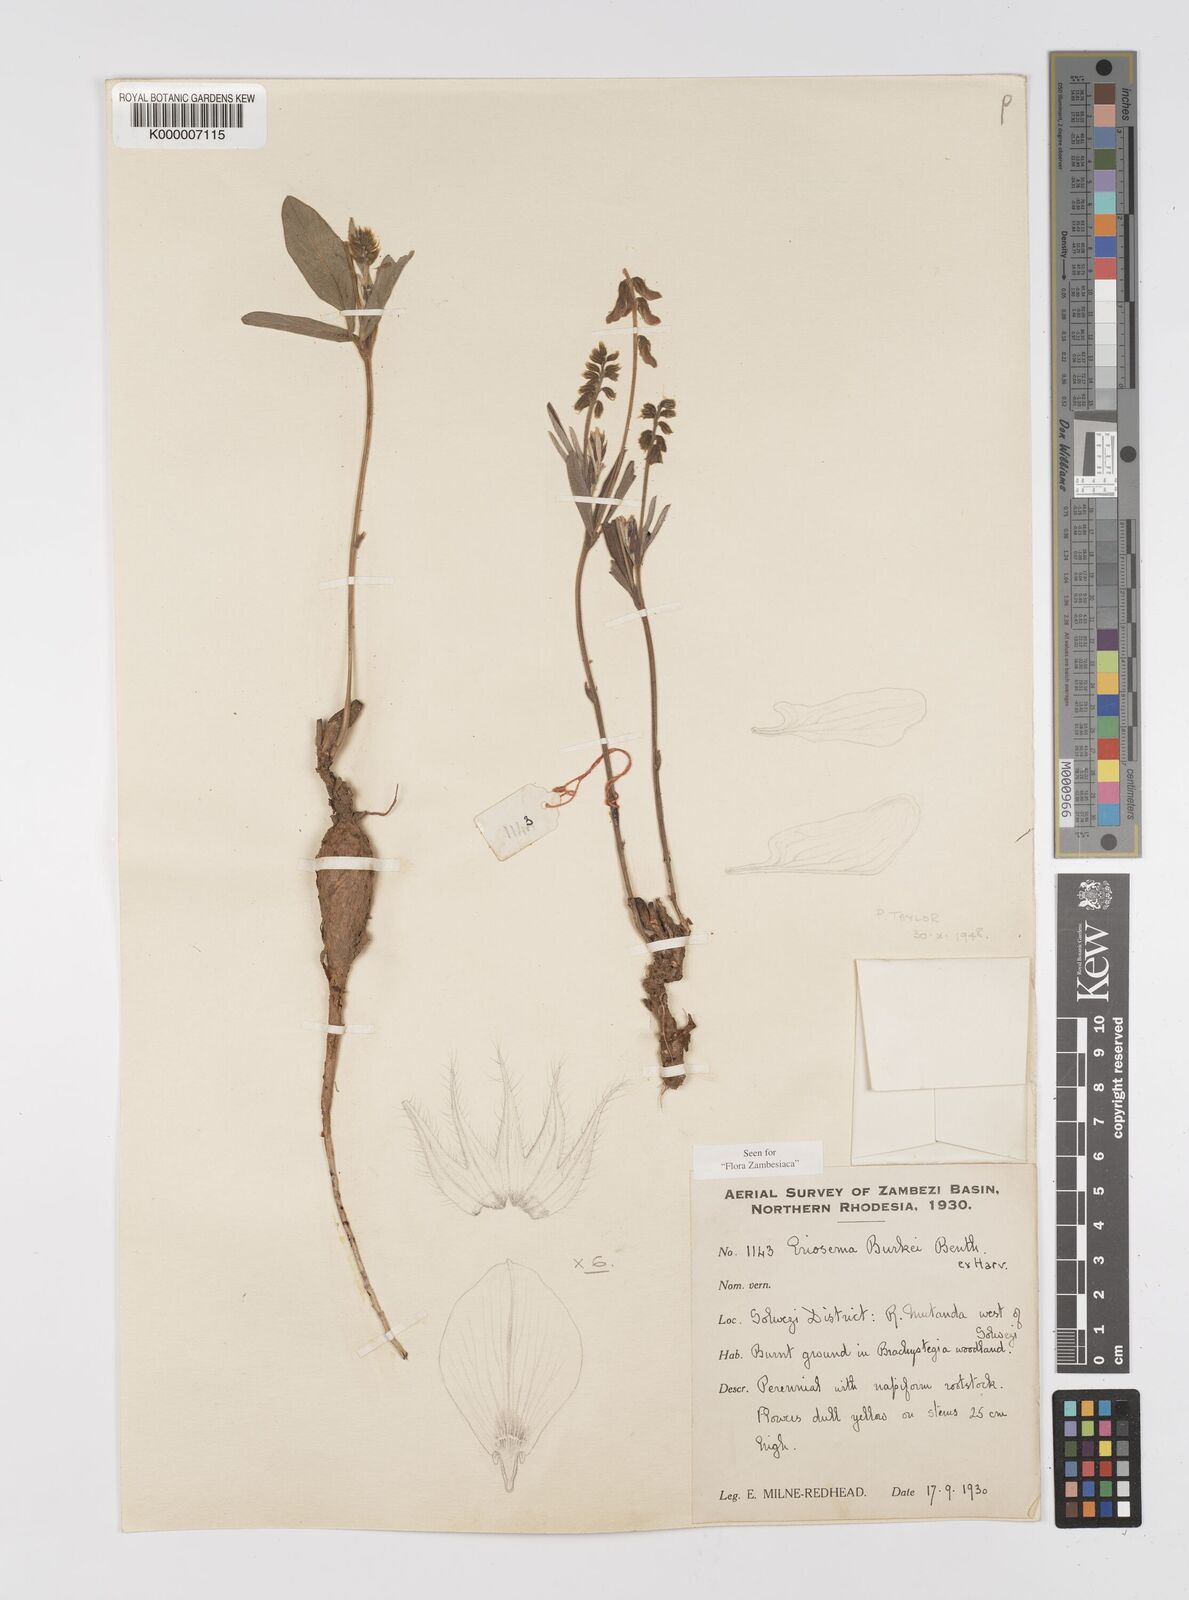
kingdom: Plantae
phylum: Tracheophyta
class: Magnoliopsida
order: Fabales
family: Fabaceae
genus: Eriosema
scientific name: Eriosema burkei
